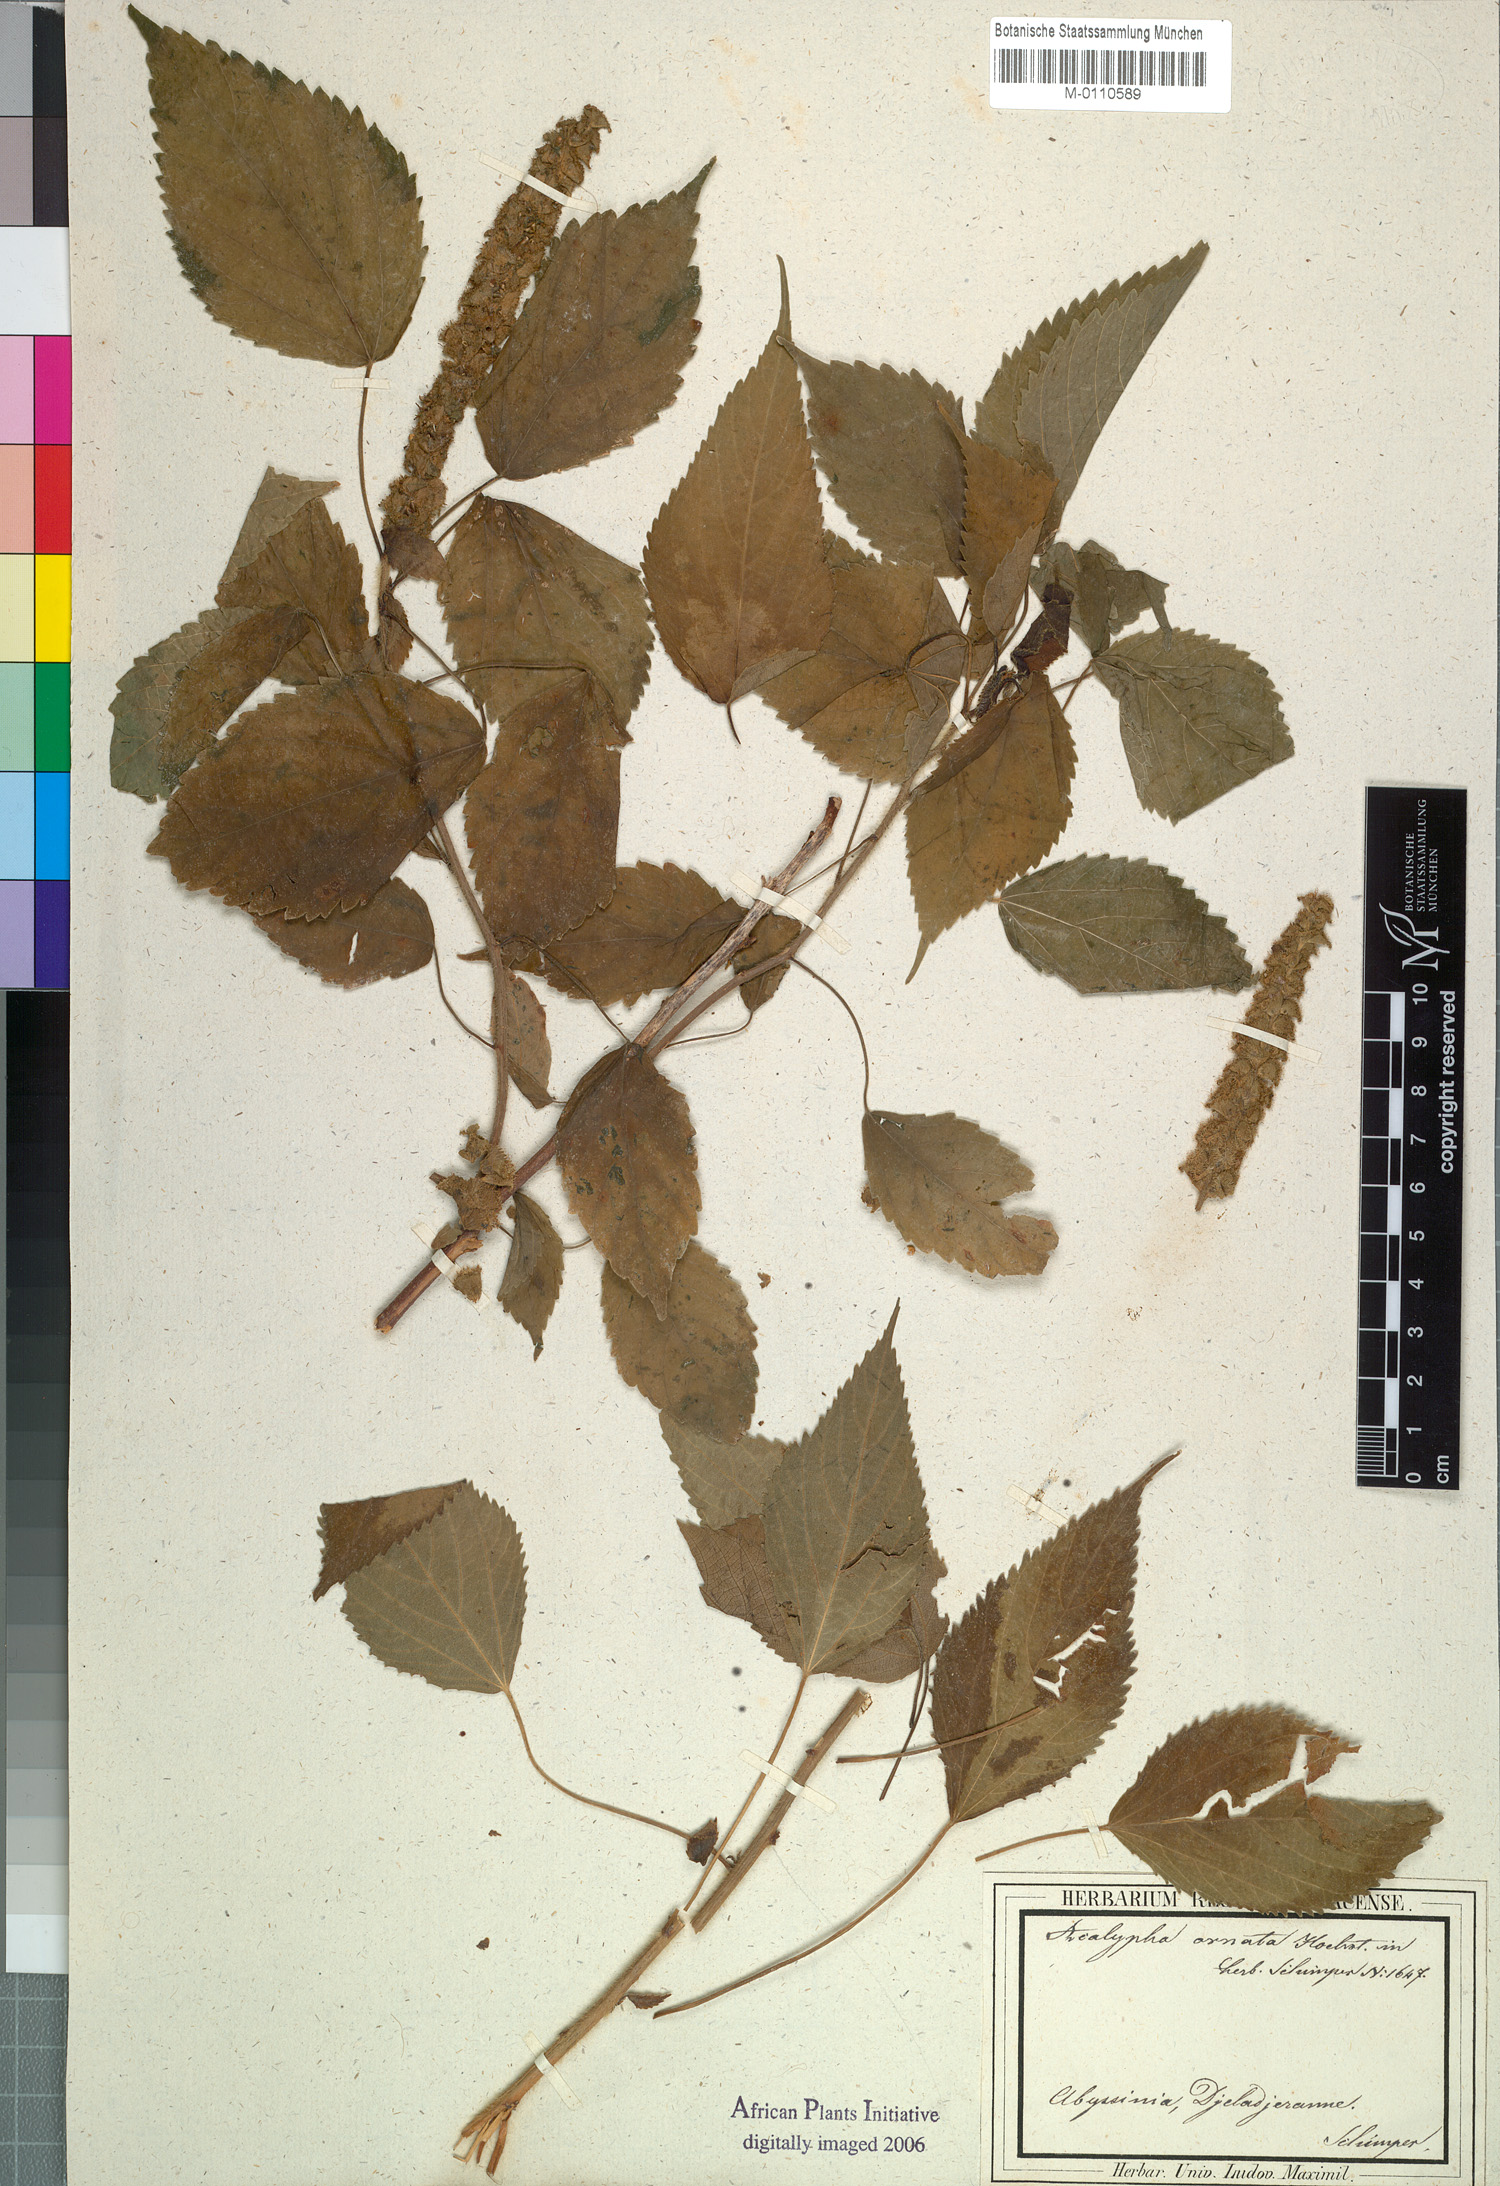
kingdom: Plantae
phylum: Tracheophyta
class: Magnoliopsida
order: Malpighiales
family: Euphorbiaceae
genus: Acalypha
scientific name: Acalypha ornata
